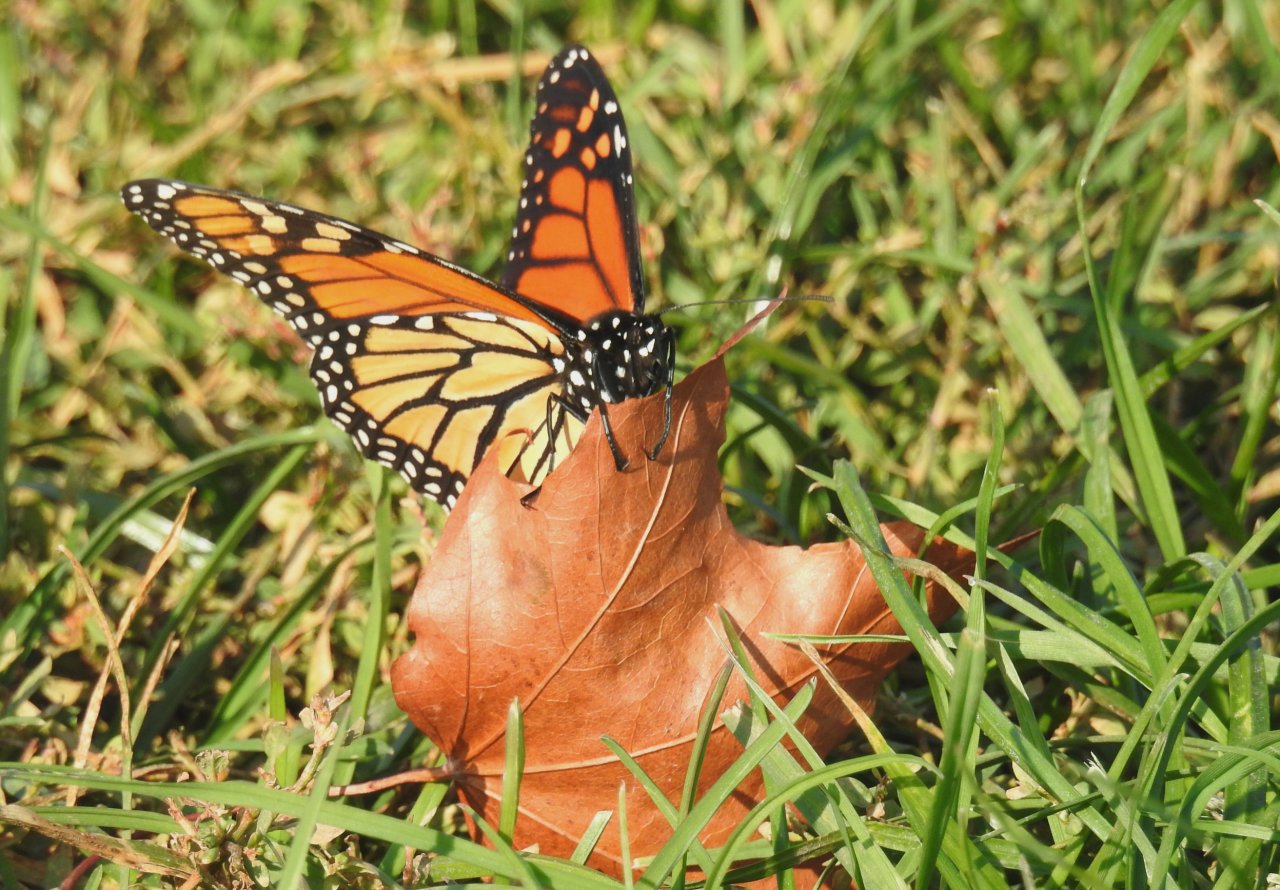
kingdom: Animalia
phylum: Arthropoda
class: Insecta
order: Lepidoptera
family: Nymphalidae
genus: Danaus
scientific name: Danaus plexippus
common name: Monarch
